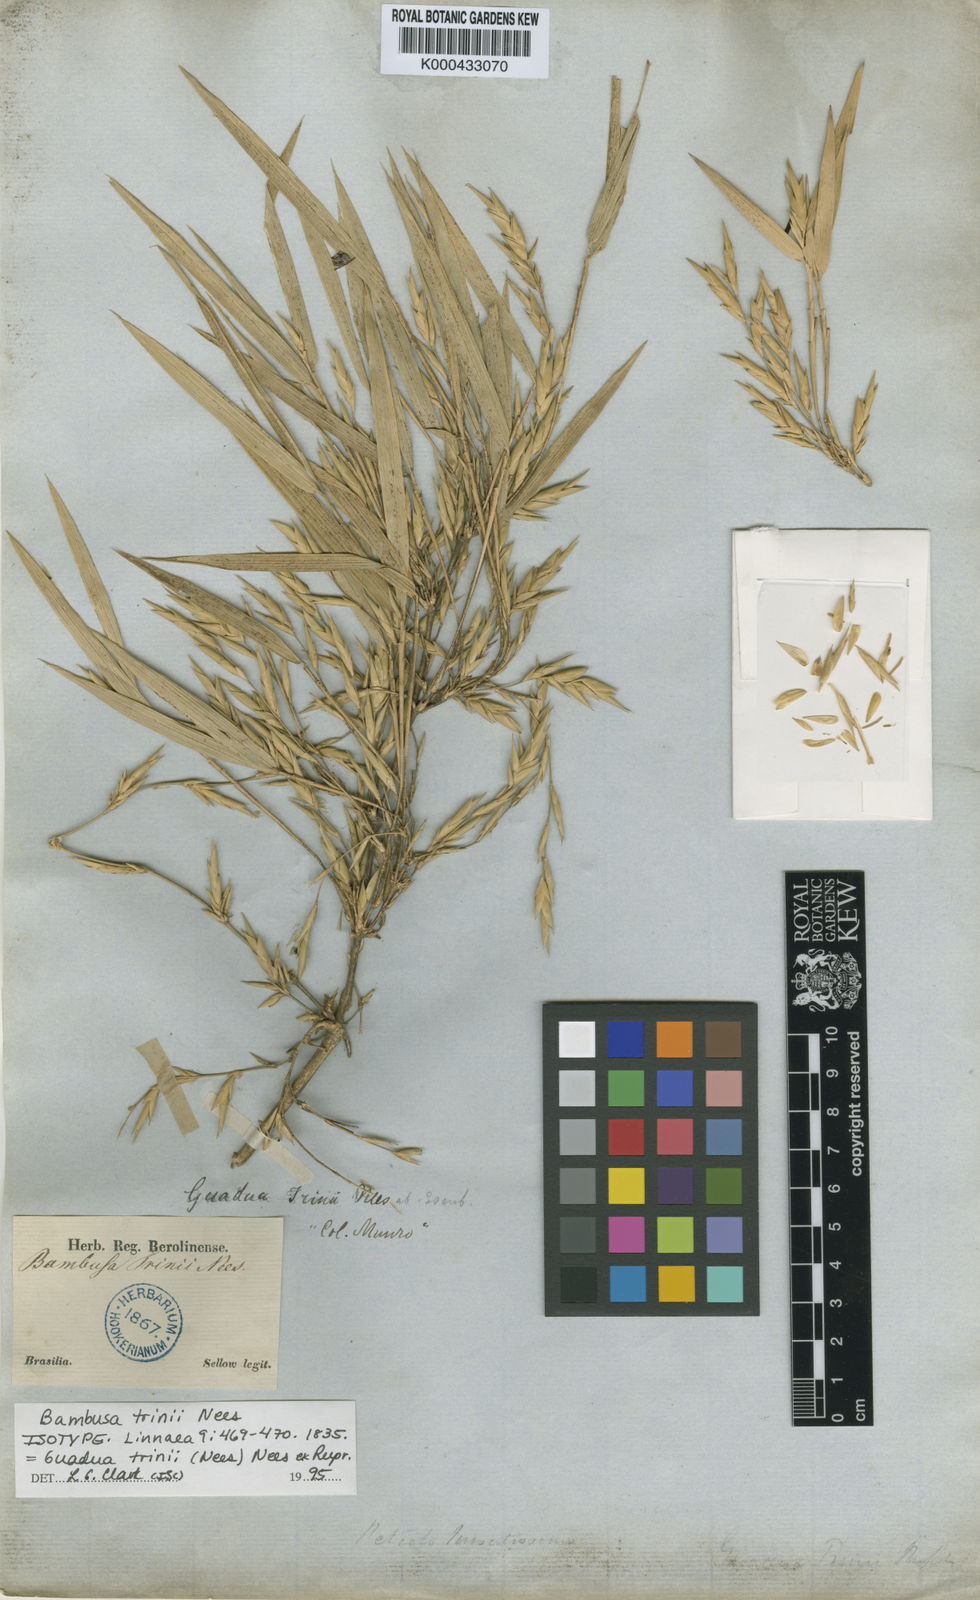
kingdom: Plantae
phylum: Tracheophyta
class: Liliopsida
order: Poales
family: Poaceae
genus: Guadua
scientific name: Guadua trinii
